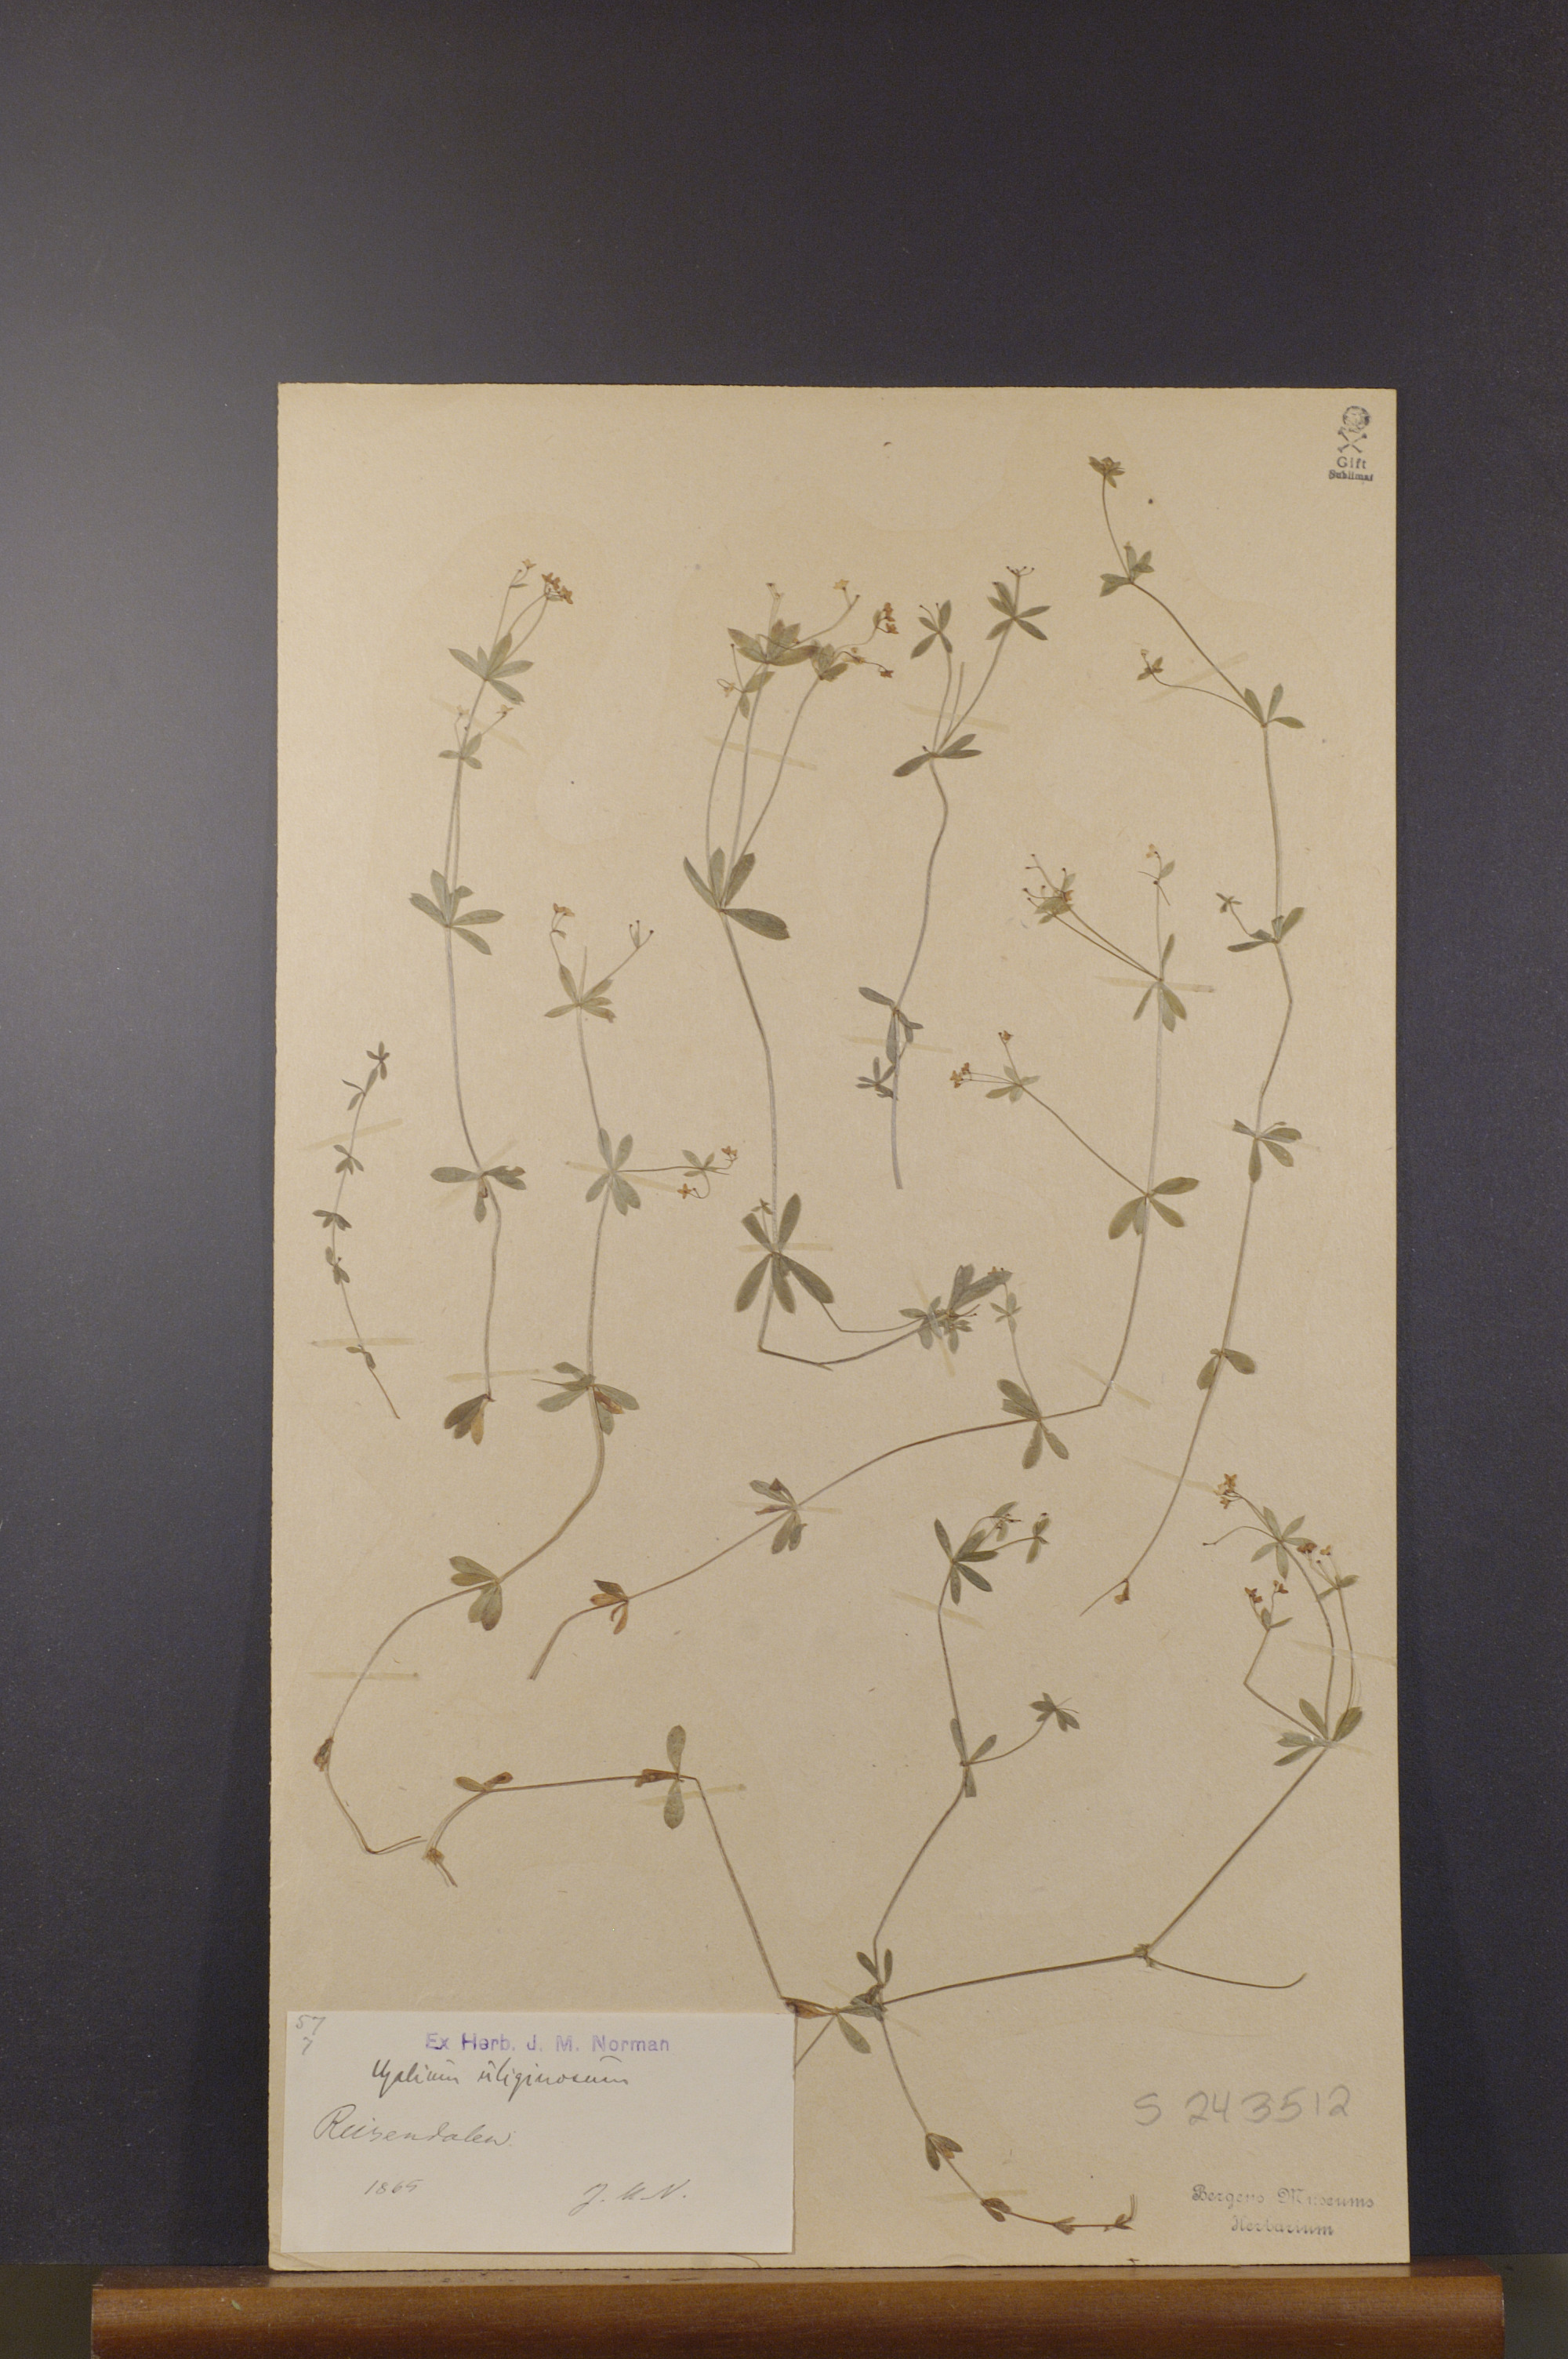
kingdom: Plantae
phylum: Tracheophyta
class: Magnoliopsida
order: Gentianales
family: Rubiaceae
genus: Galium
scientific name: Galium uliginosum
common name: Fen bedstraw
